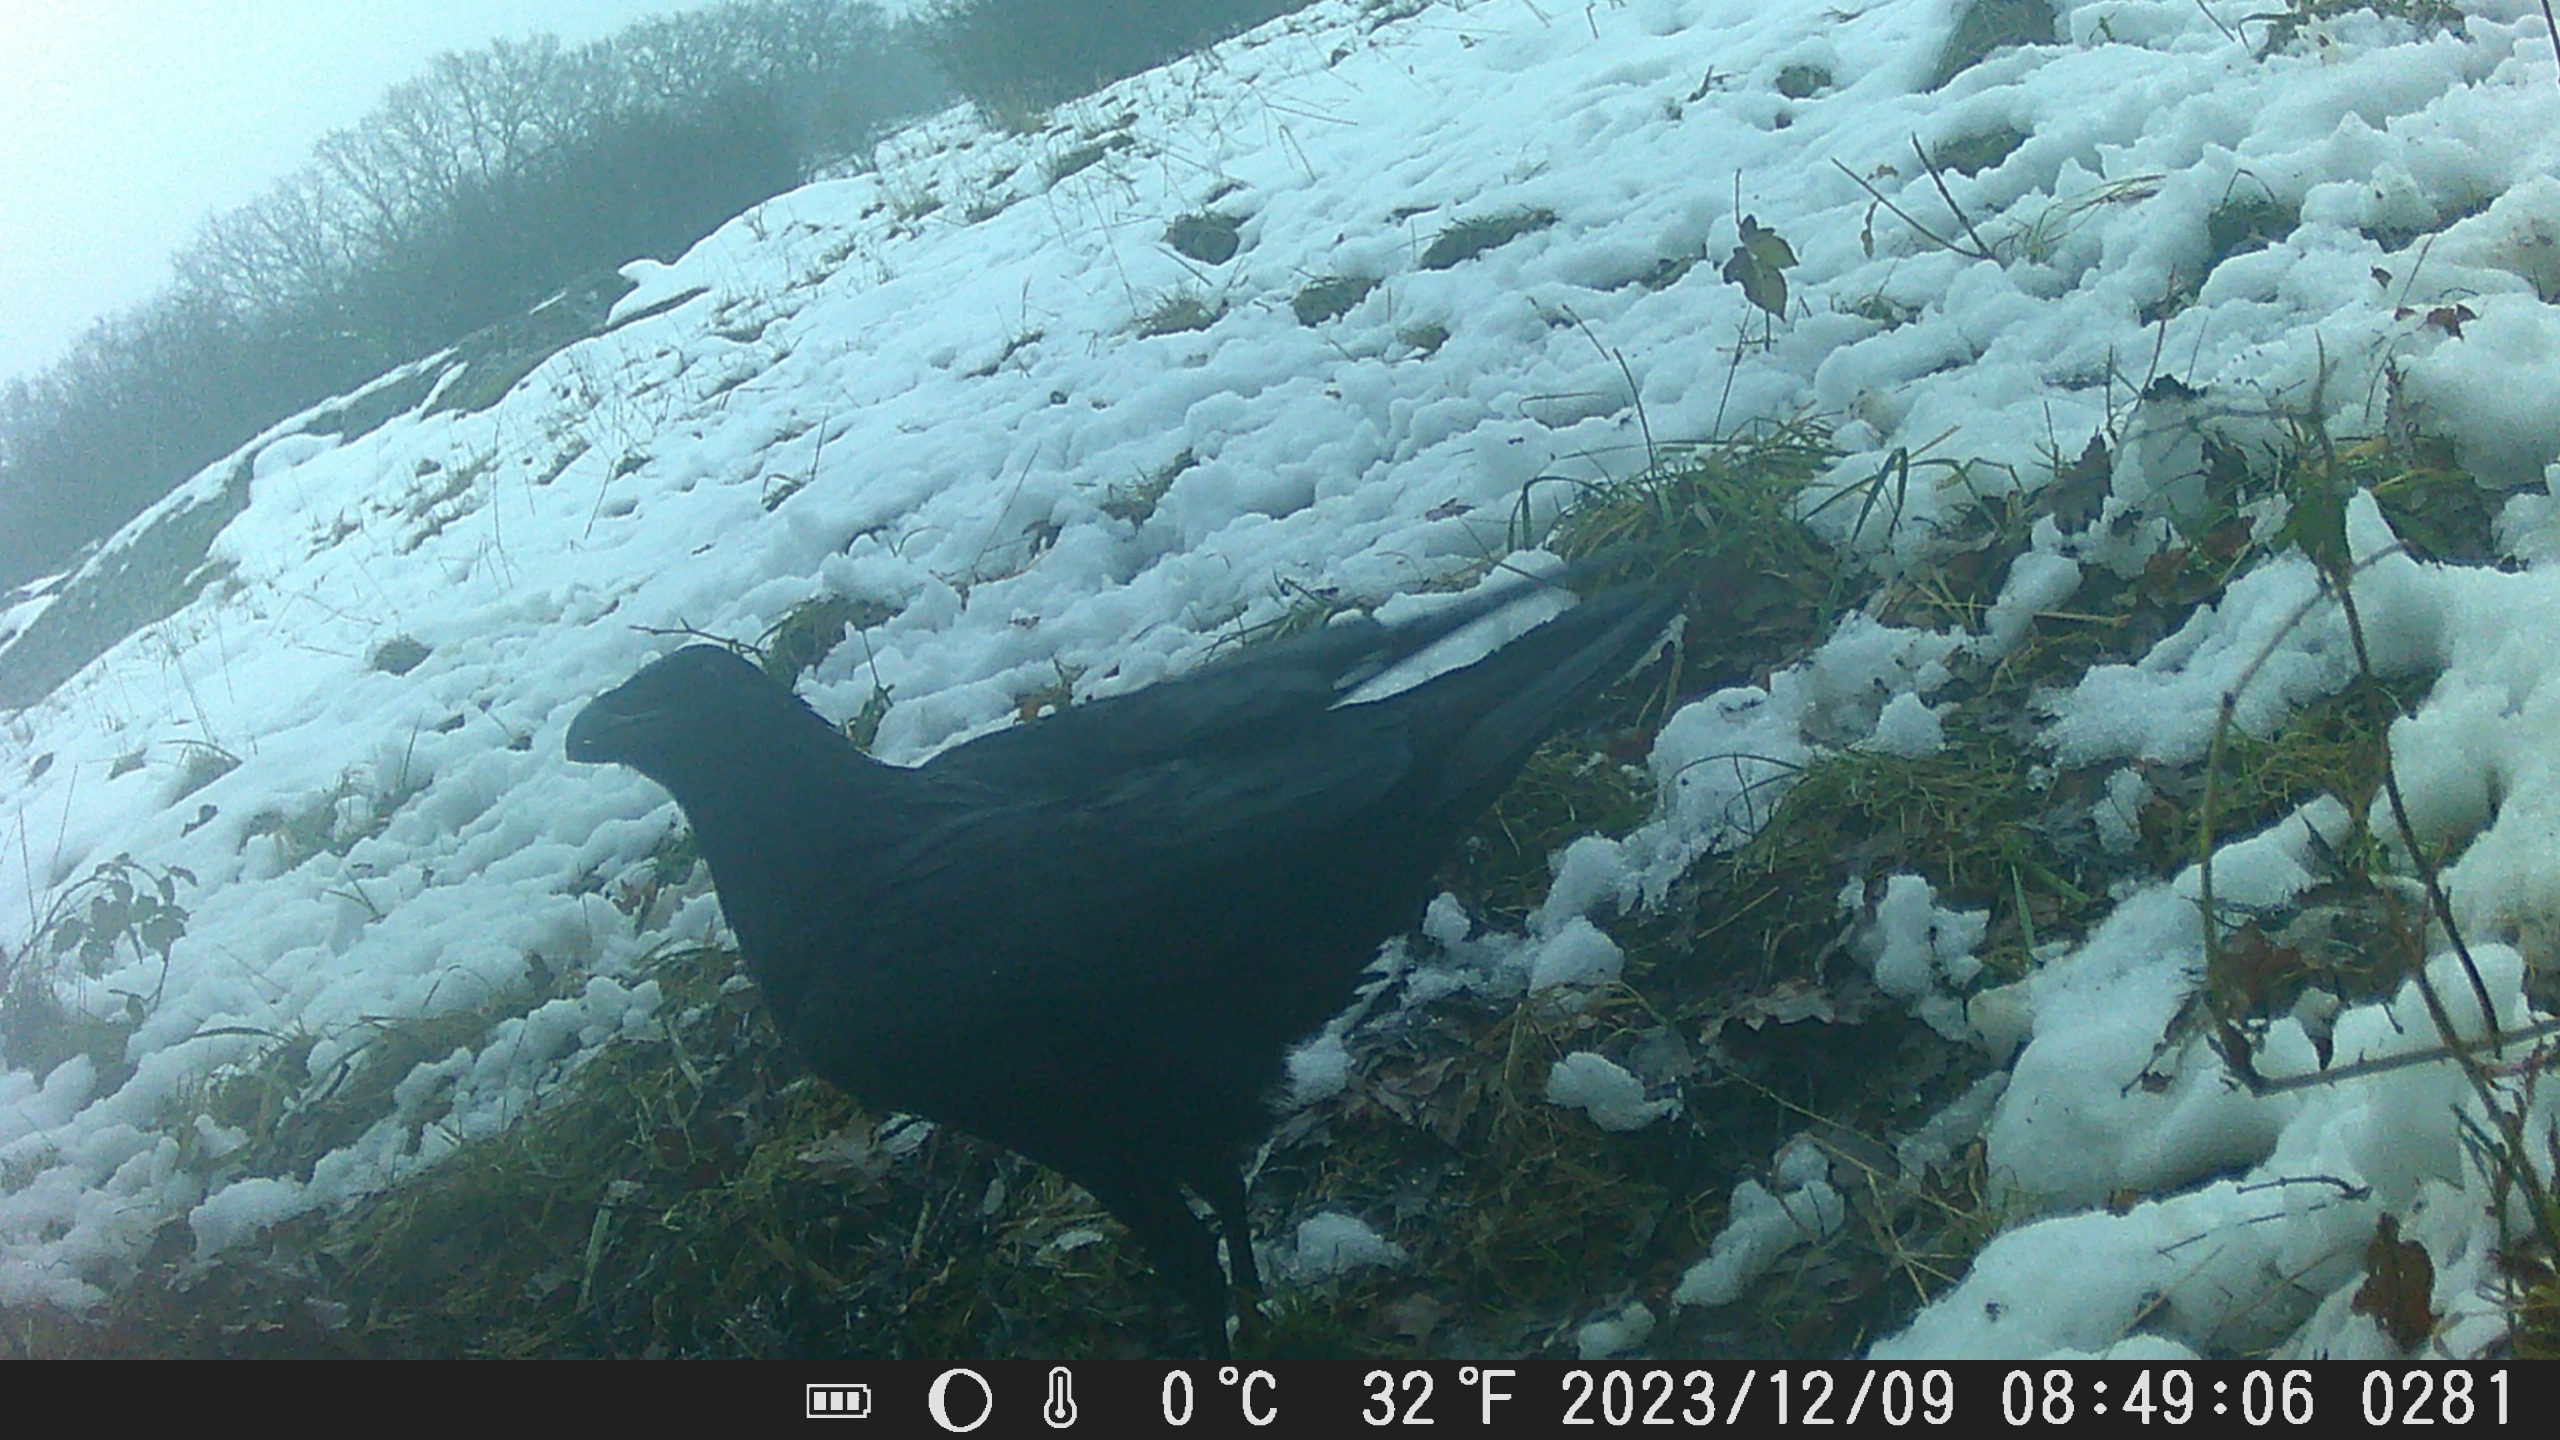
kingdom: Animalia
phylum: Chordata
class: Aves
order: Passeriformes
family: Corvidae
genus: Corvus
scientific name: Corvus corax
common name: Ravn
